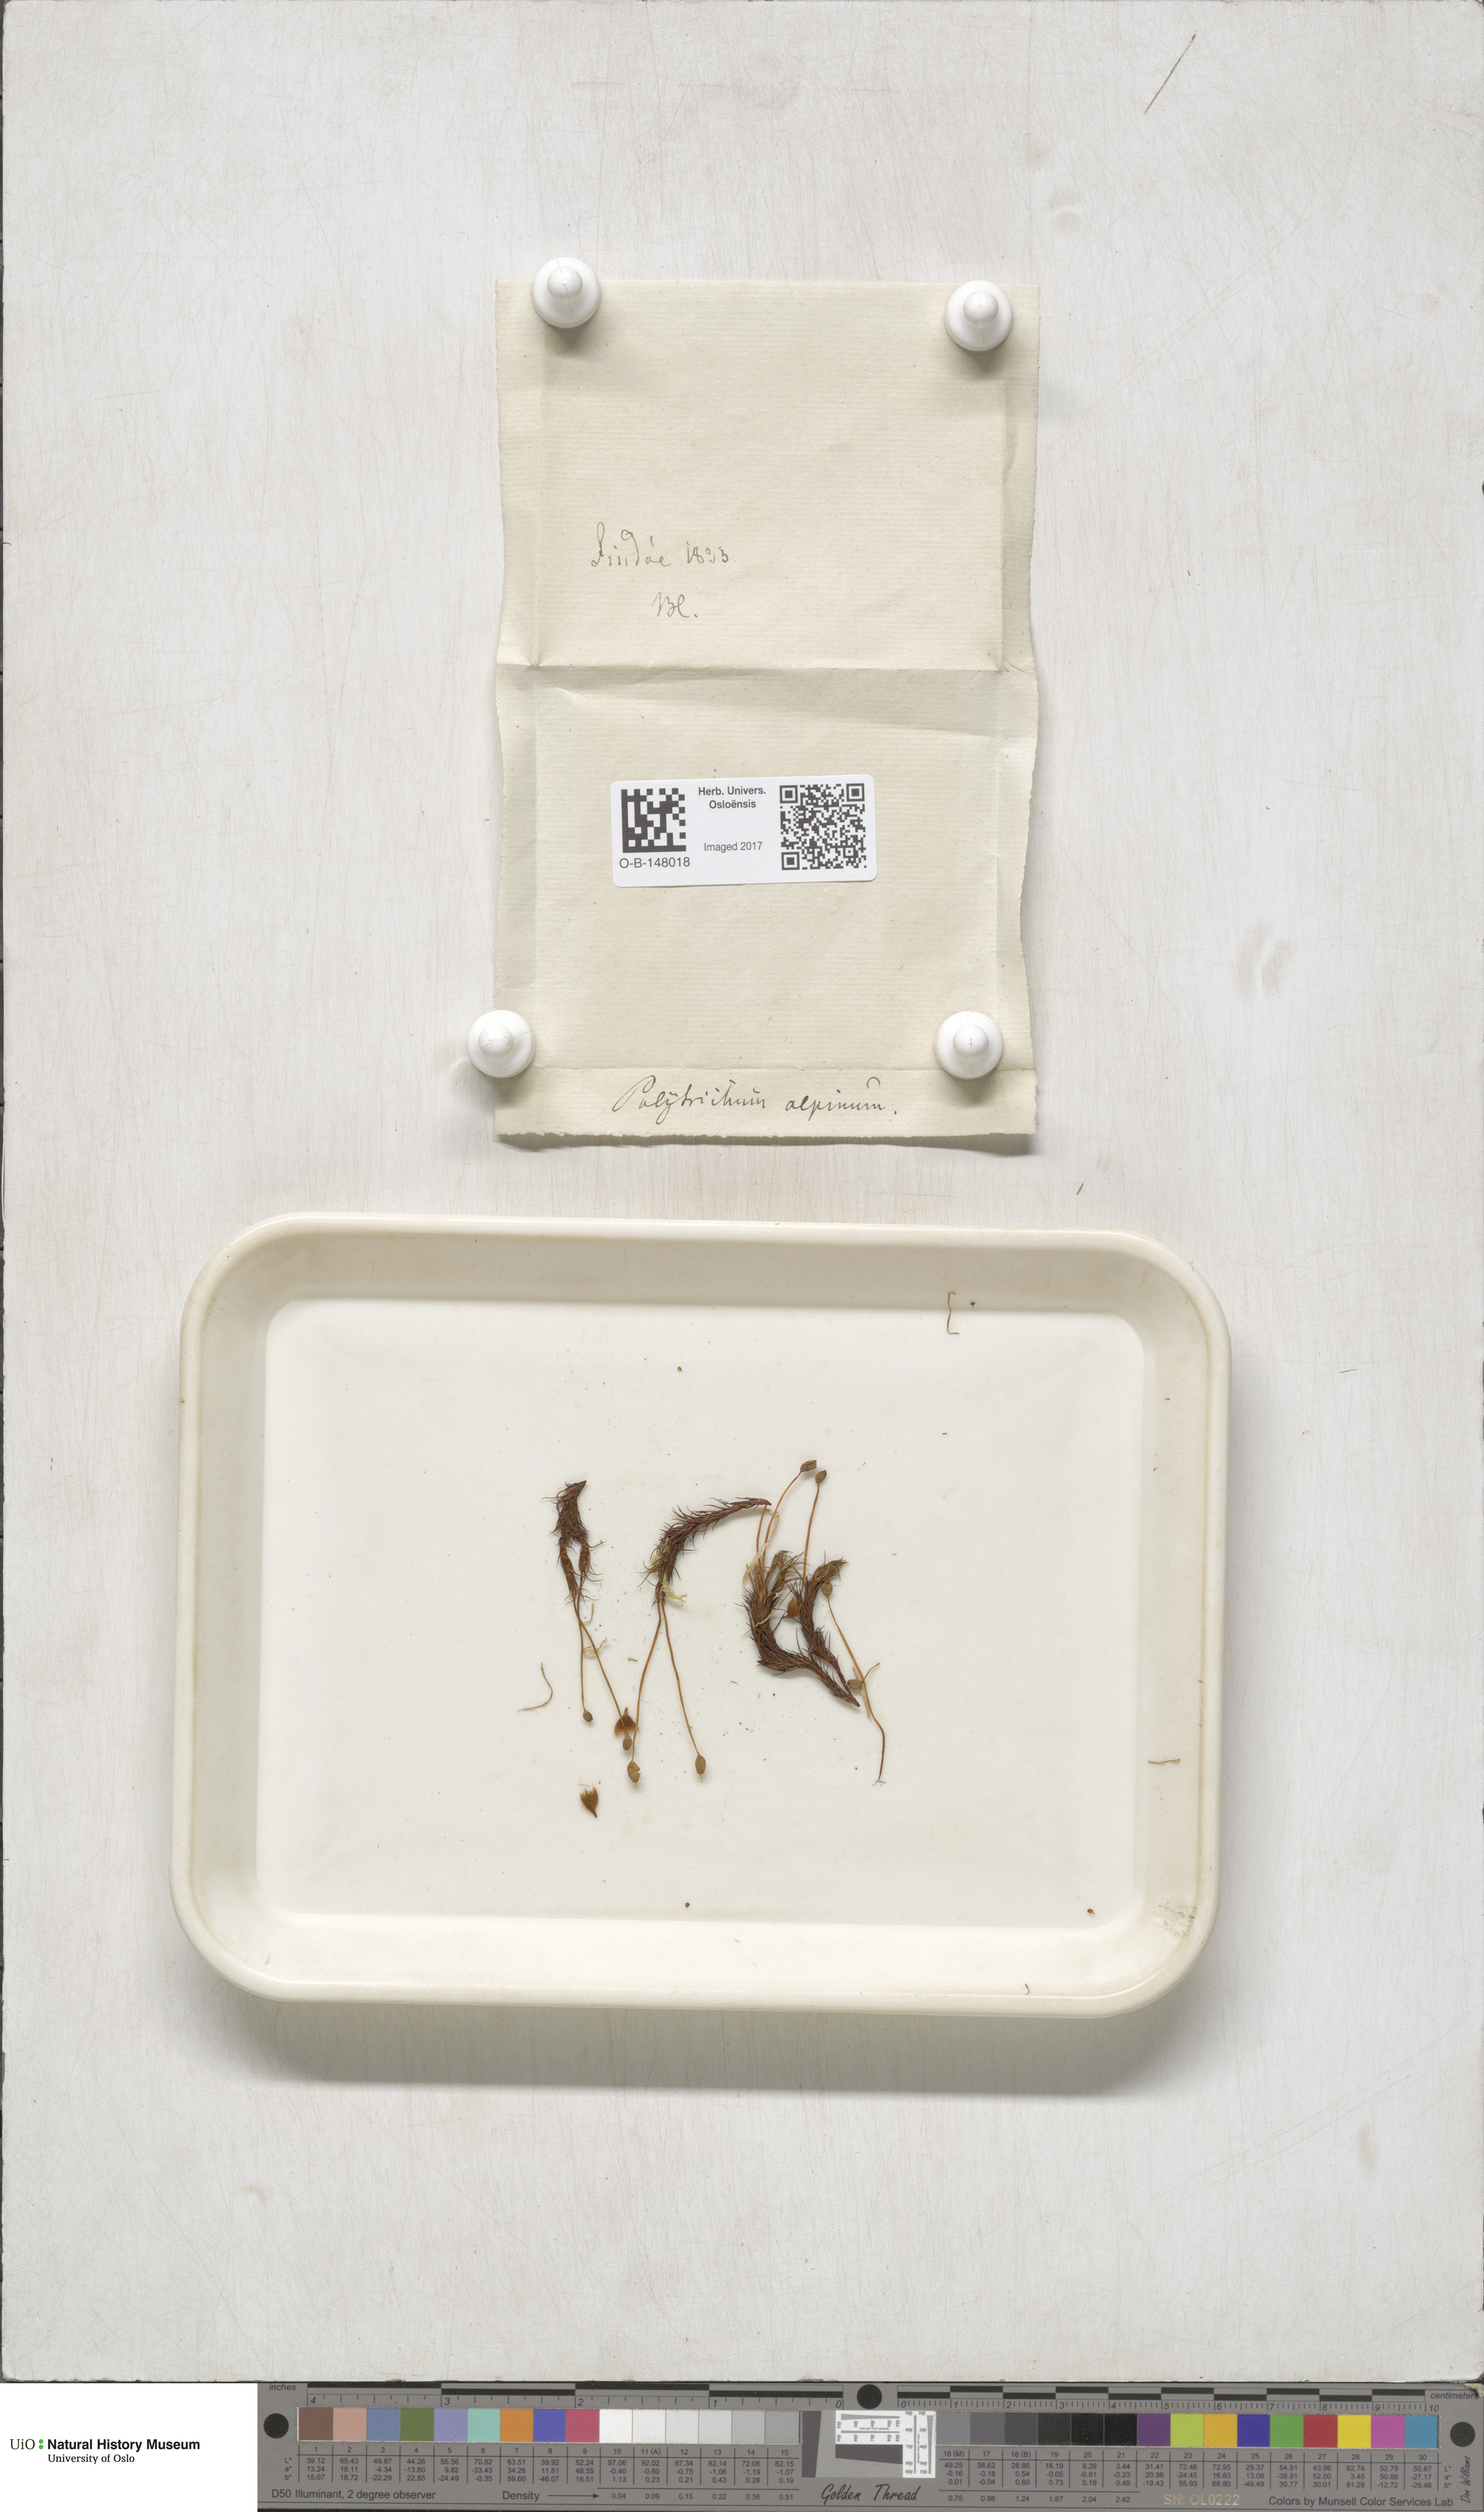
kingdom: Plantae
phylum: Bryophyta
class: Polytrichopsida
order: Polytrichales
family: Polytrichaceae
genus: Polytrichastrum
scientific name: Polytrichastrum alpinum
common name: Alpine haircap
